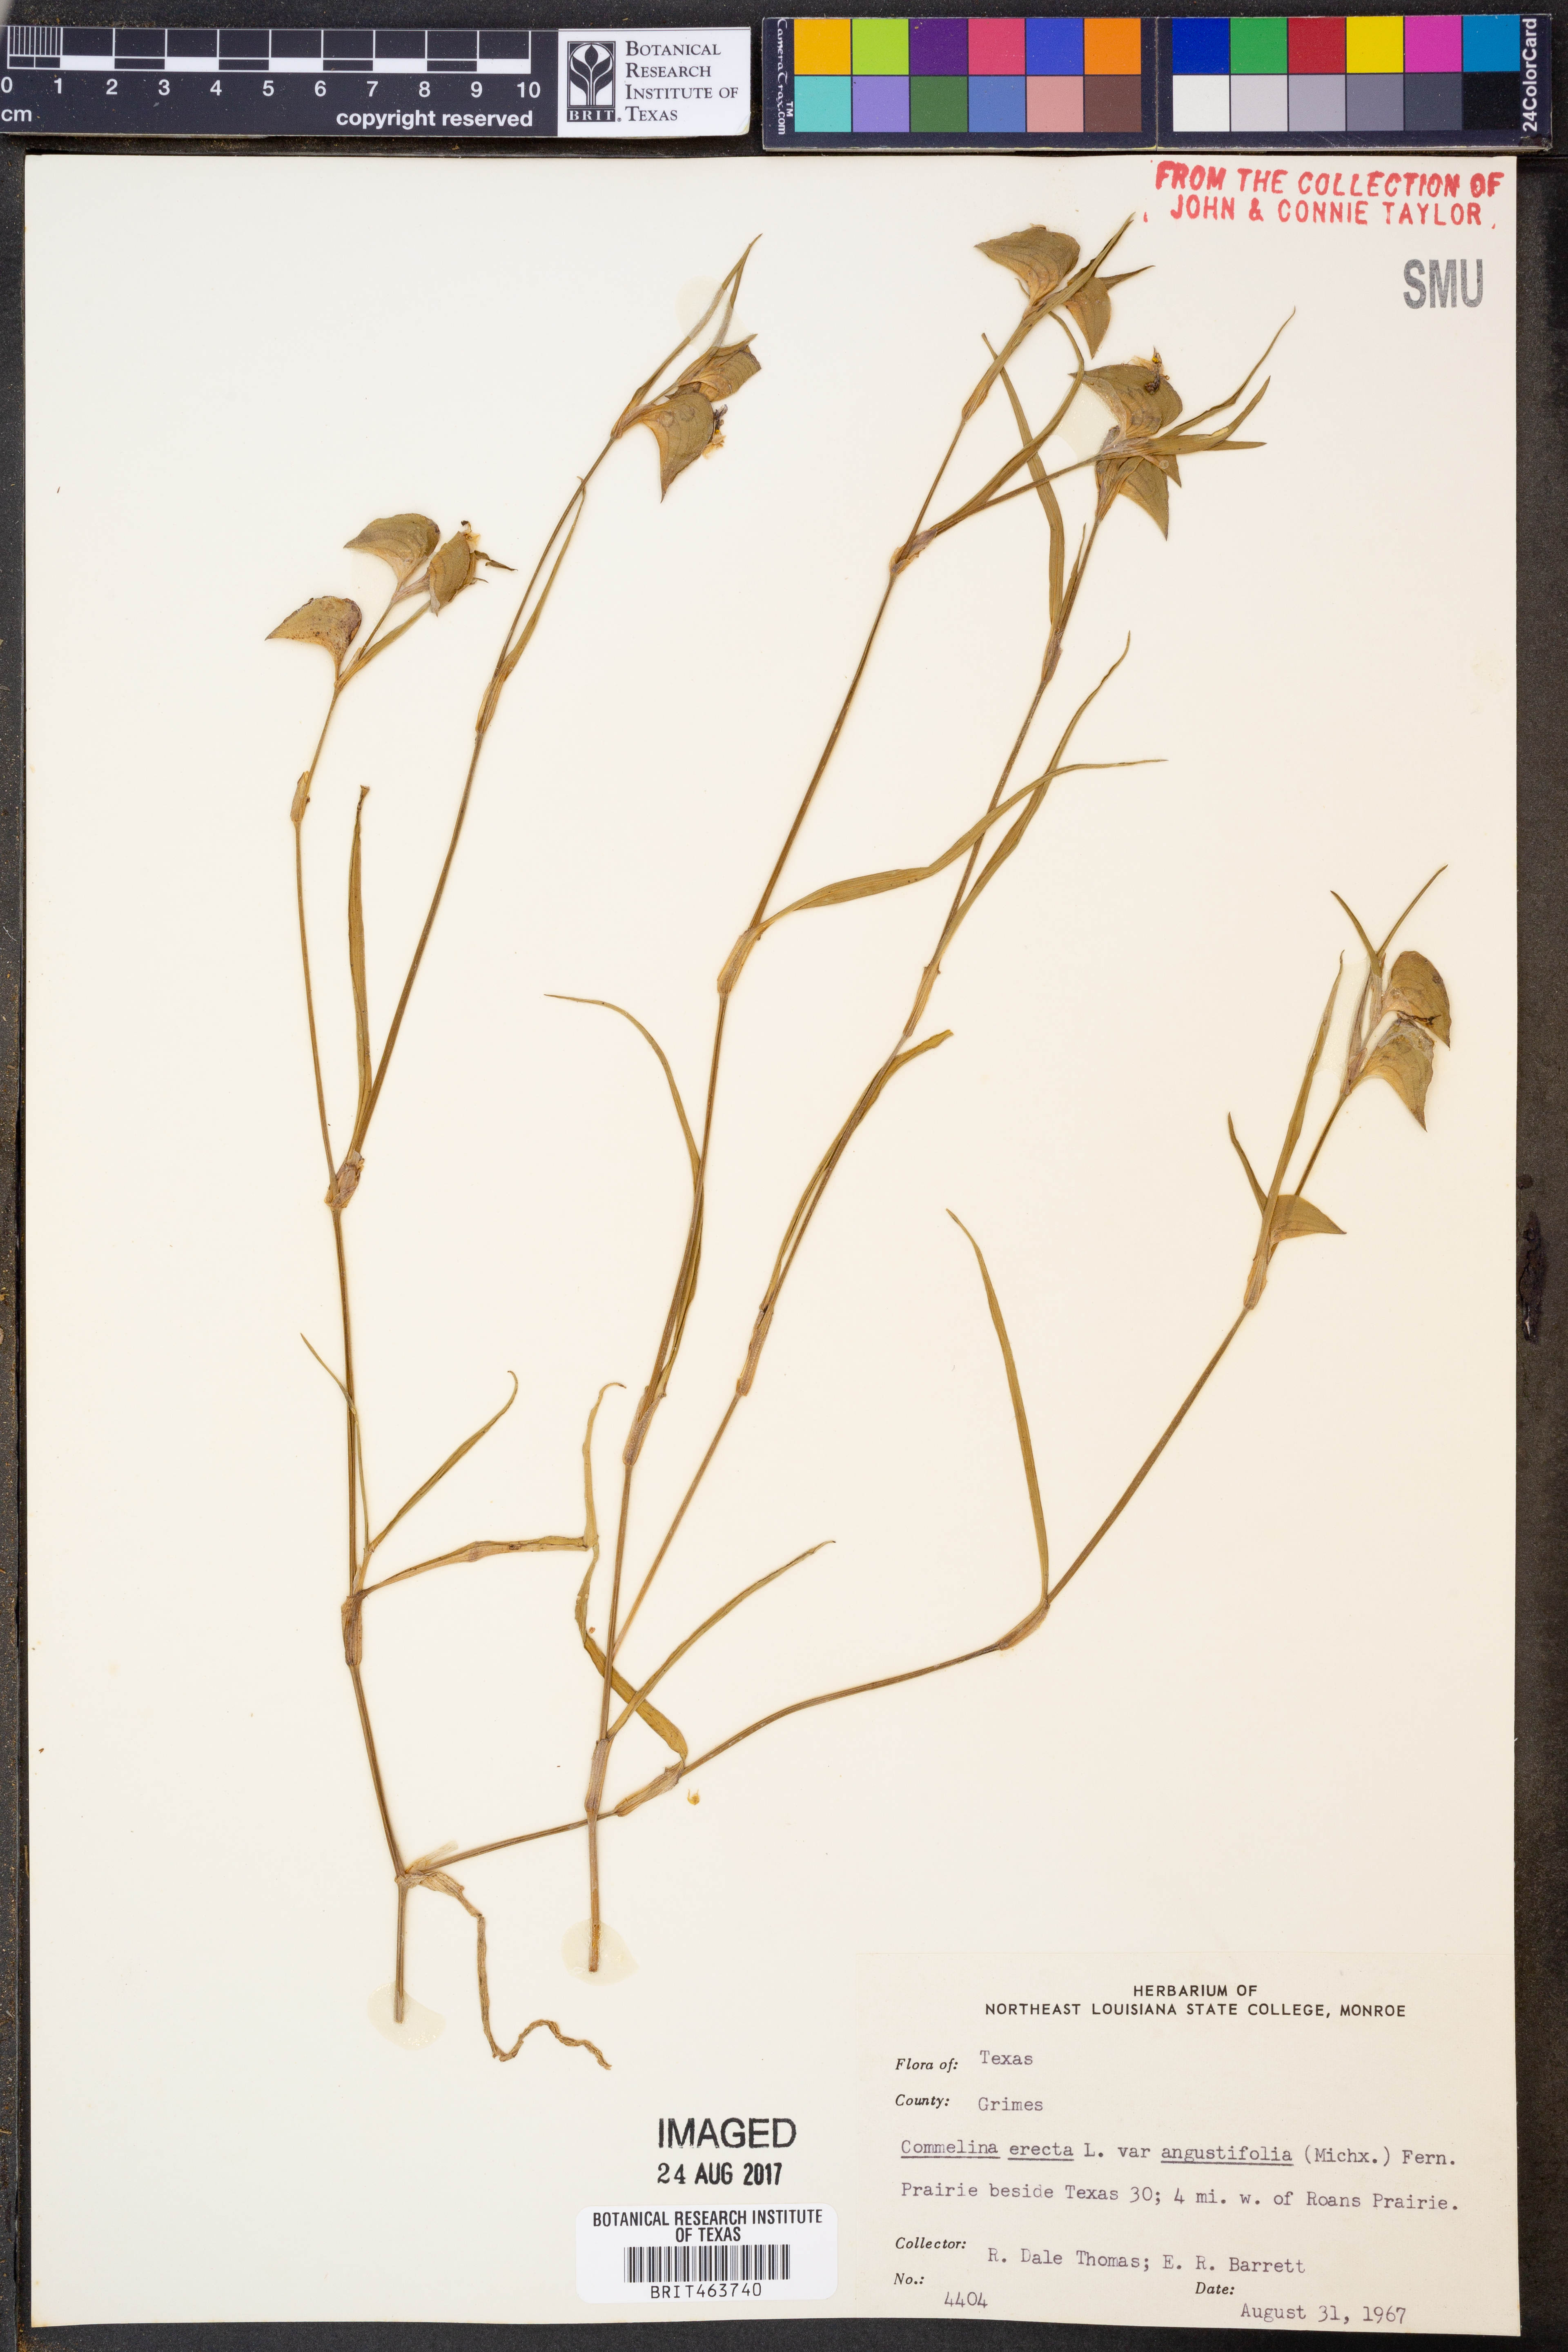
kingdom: Plantae
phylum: Tracheophyta
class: Liliopsida
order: Commelinales
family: Commelinaceae
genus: Commelina
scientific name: Commelina erecta
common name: Blousel blommetjie
